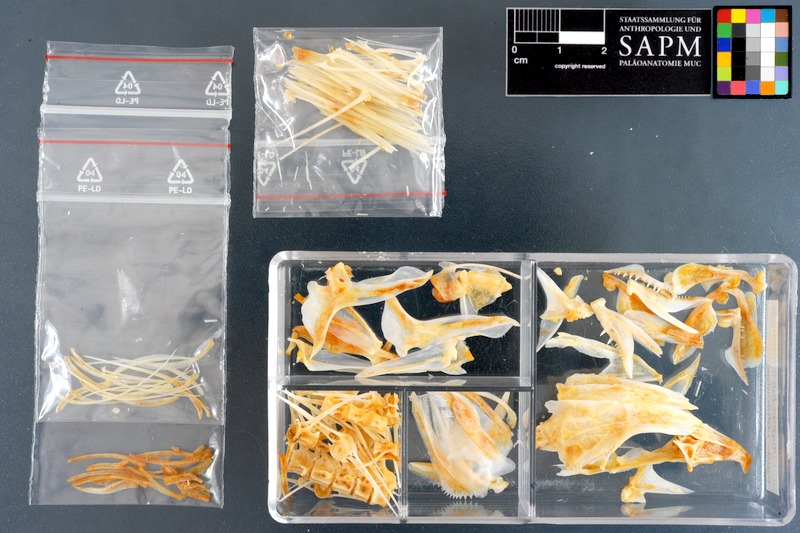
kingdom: Animalia
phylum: Chordata
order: Perciformes
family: Lutjanidae
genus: Lutjanus
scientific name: Lutjanus fulviflamma
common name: Blackspot snapper
